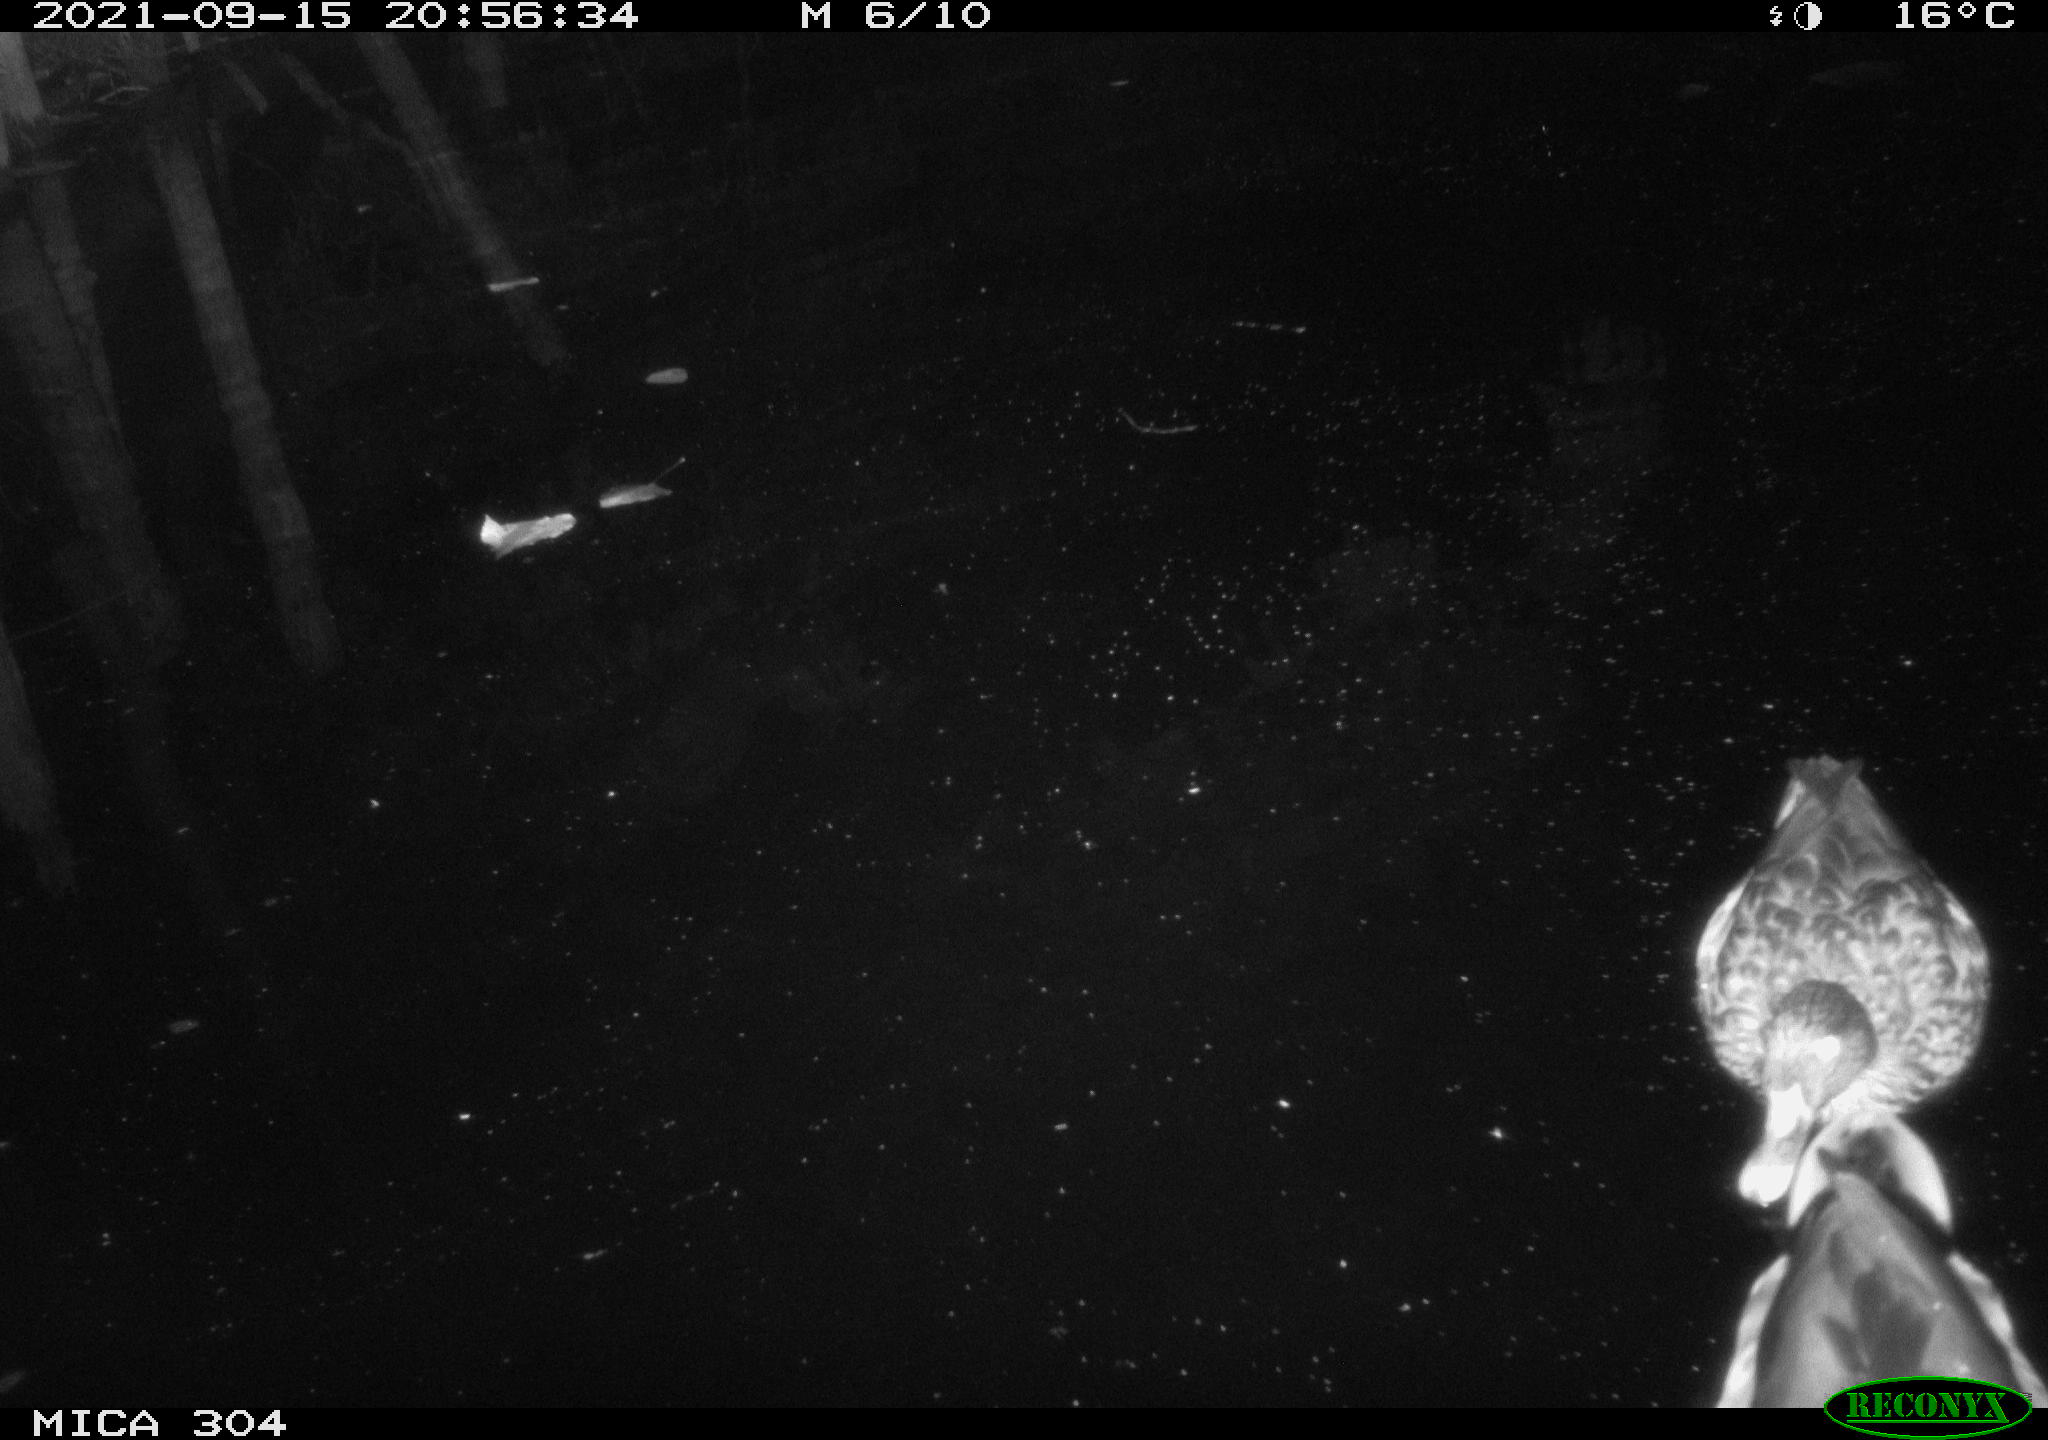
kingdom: Animalia
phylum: Chordata
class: Aves
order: Anseriformes
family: Anatidae
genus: Anas
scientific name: Anas platyrhynchos
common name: Mallard
